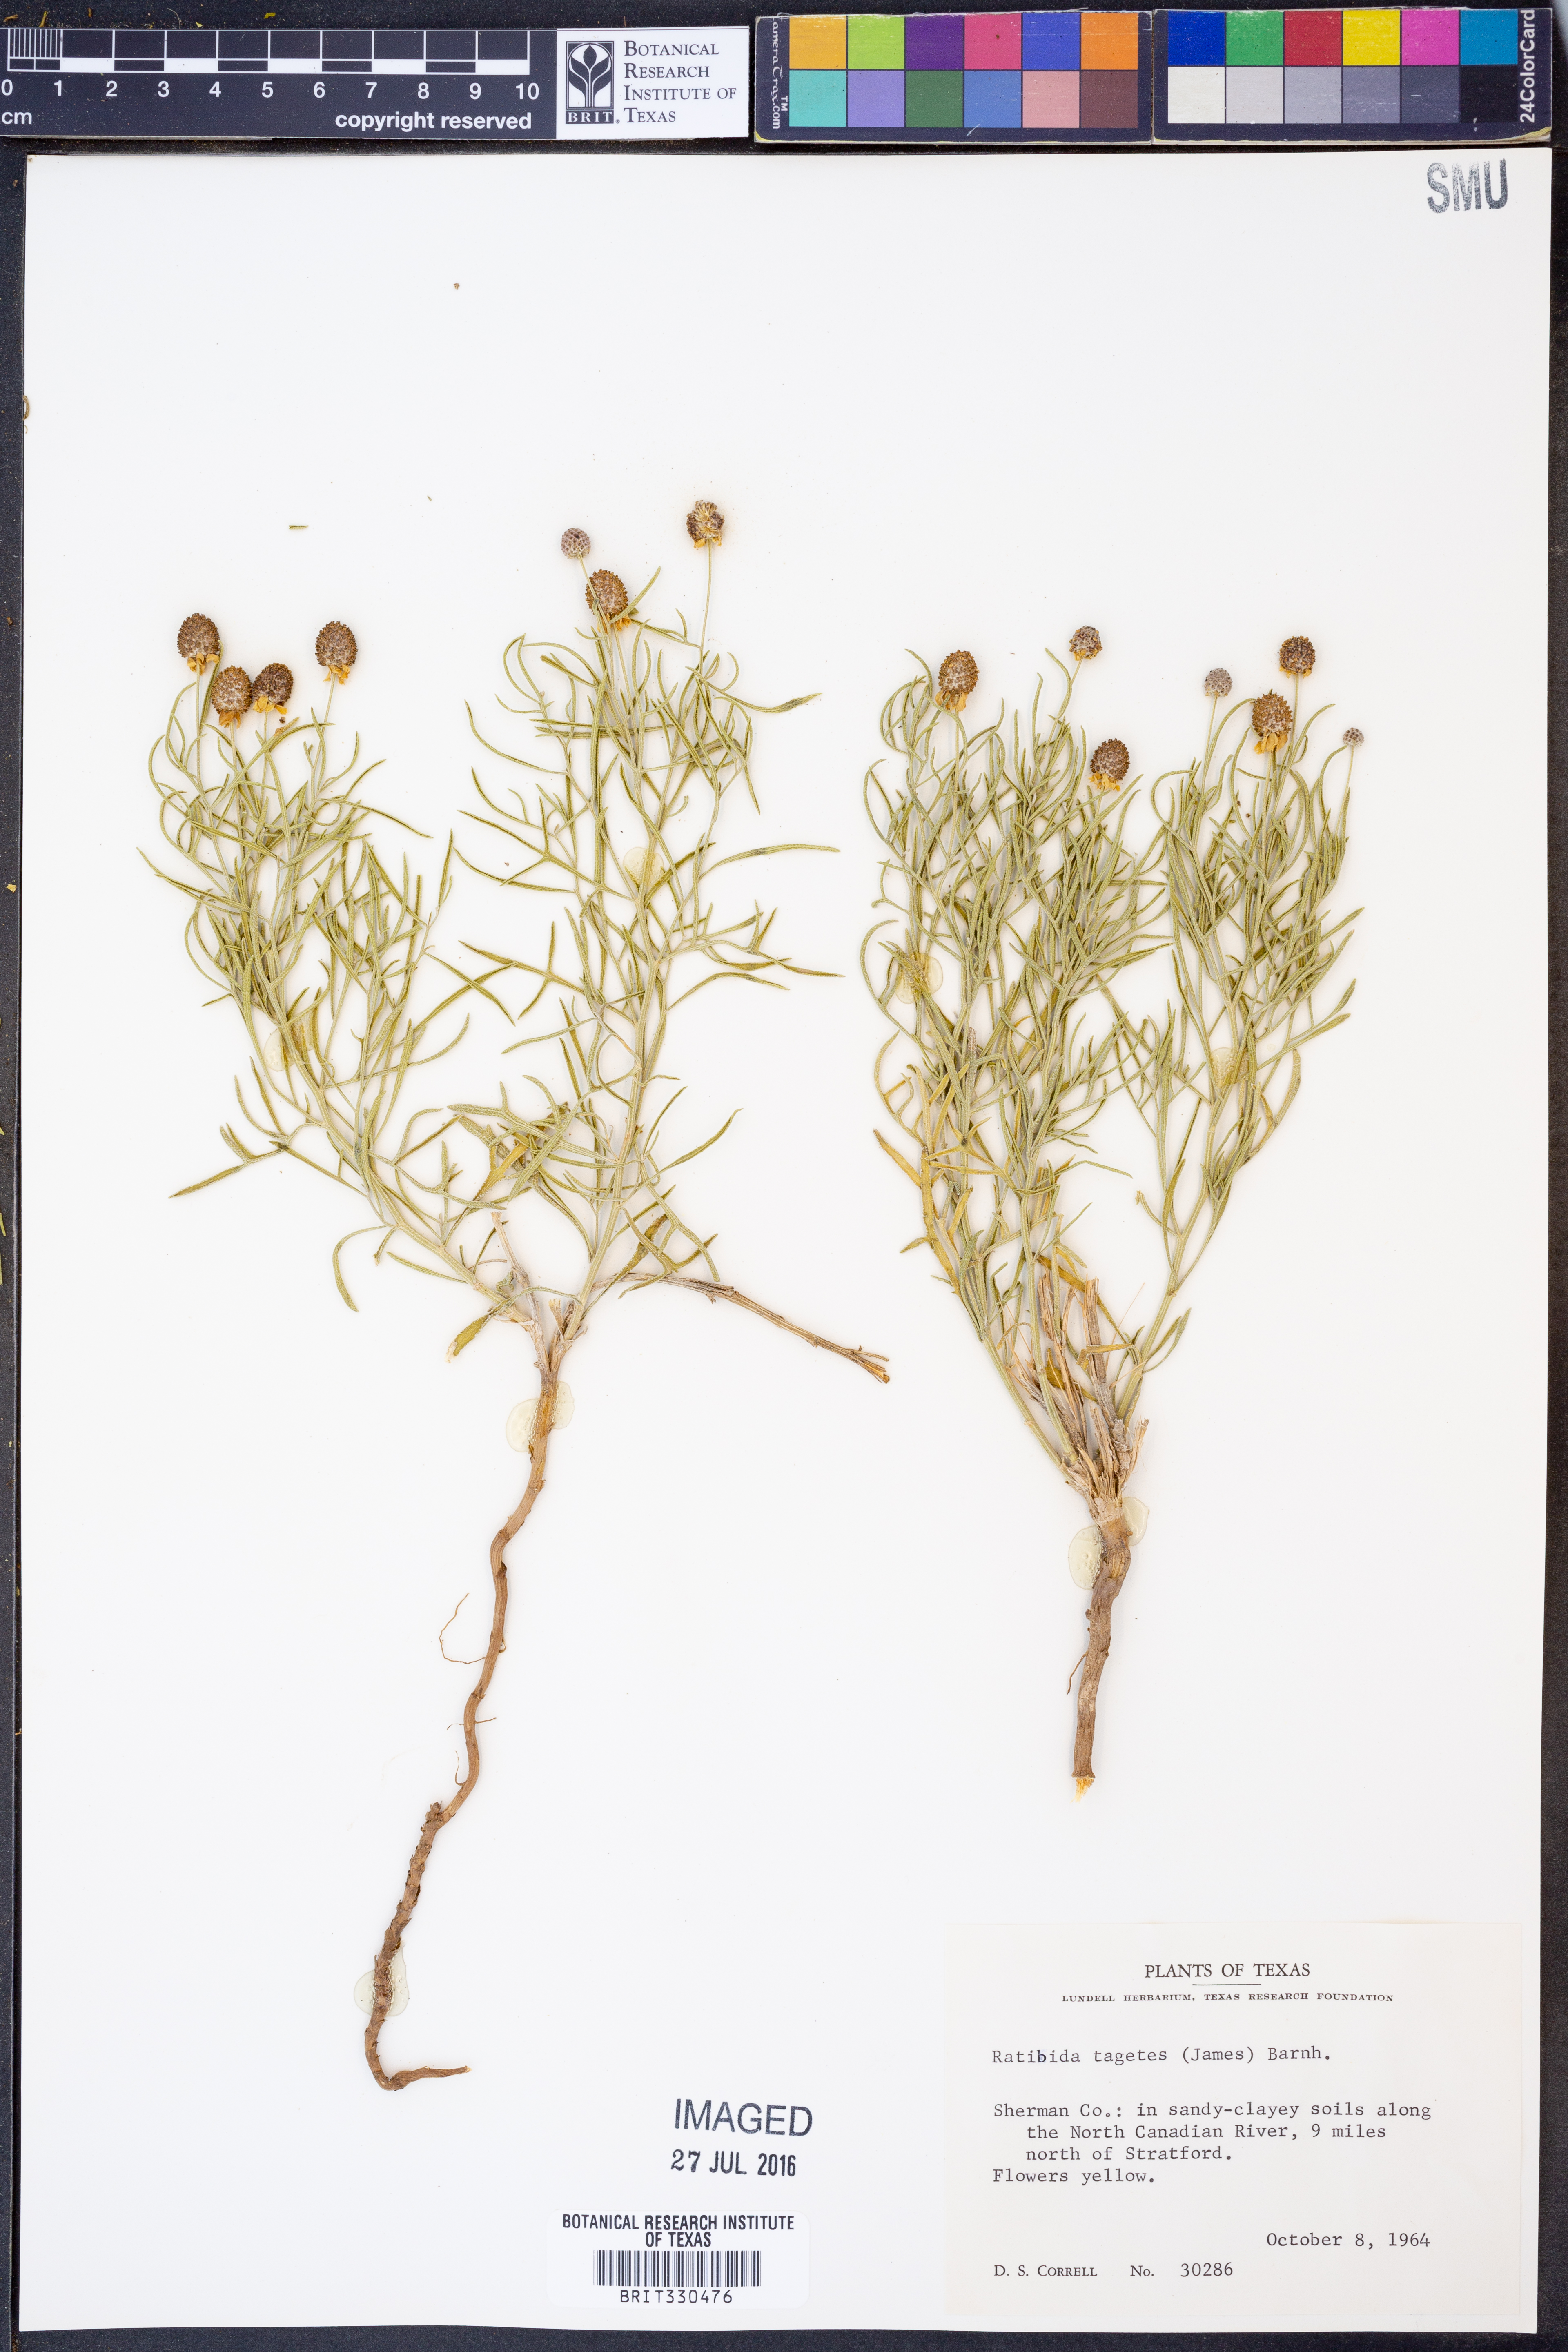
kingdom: Plantae
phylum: Tracheophyta
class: Magnoliopsida
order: Asterales
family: Asteraceae
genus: Ratibida
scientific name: Ratibida tagetes
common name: Green mexican-hat
